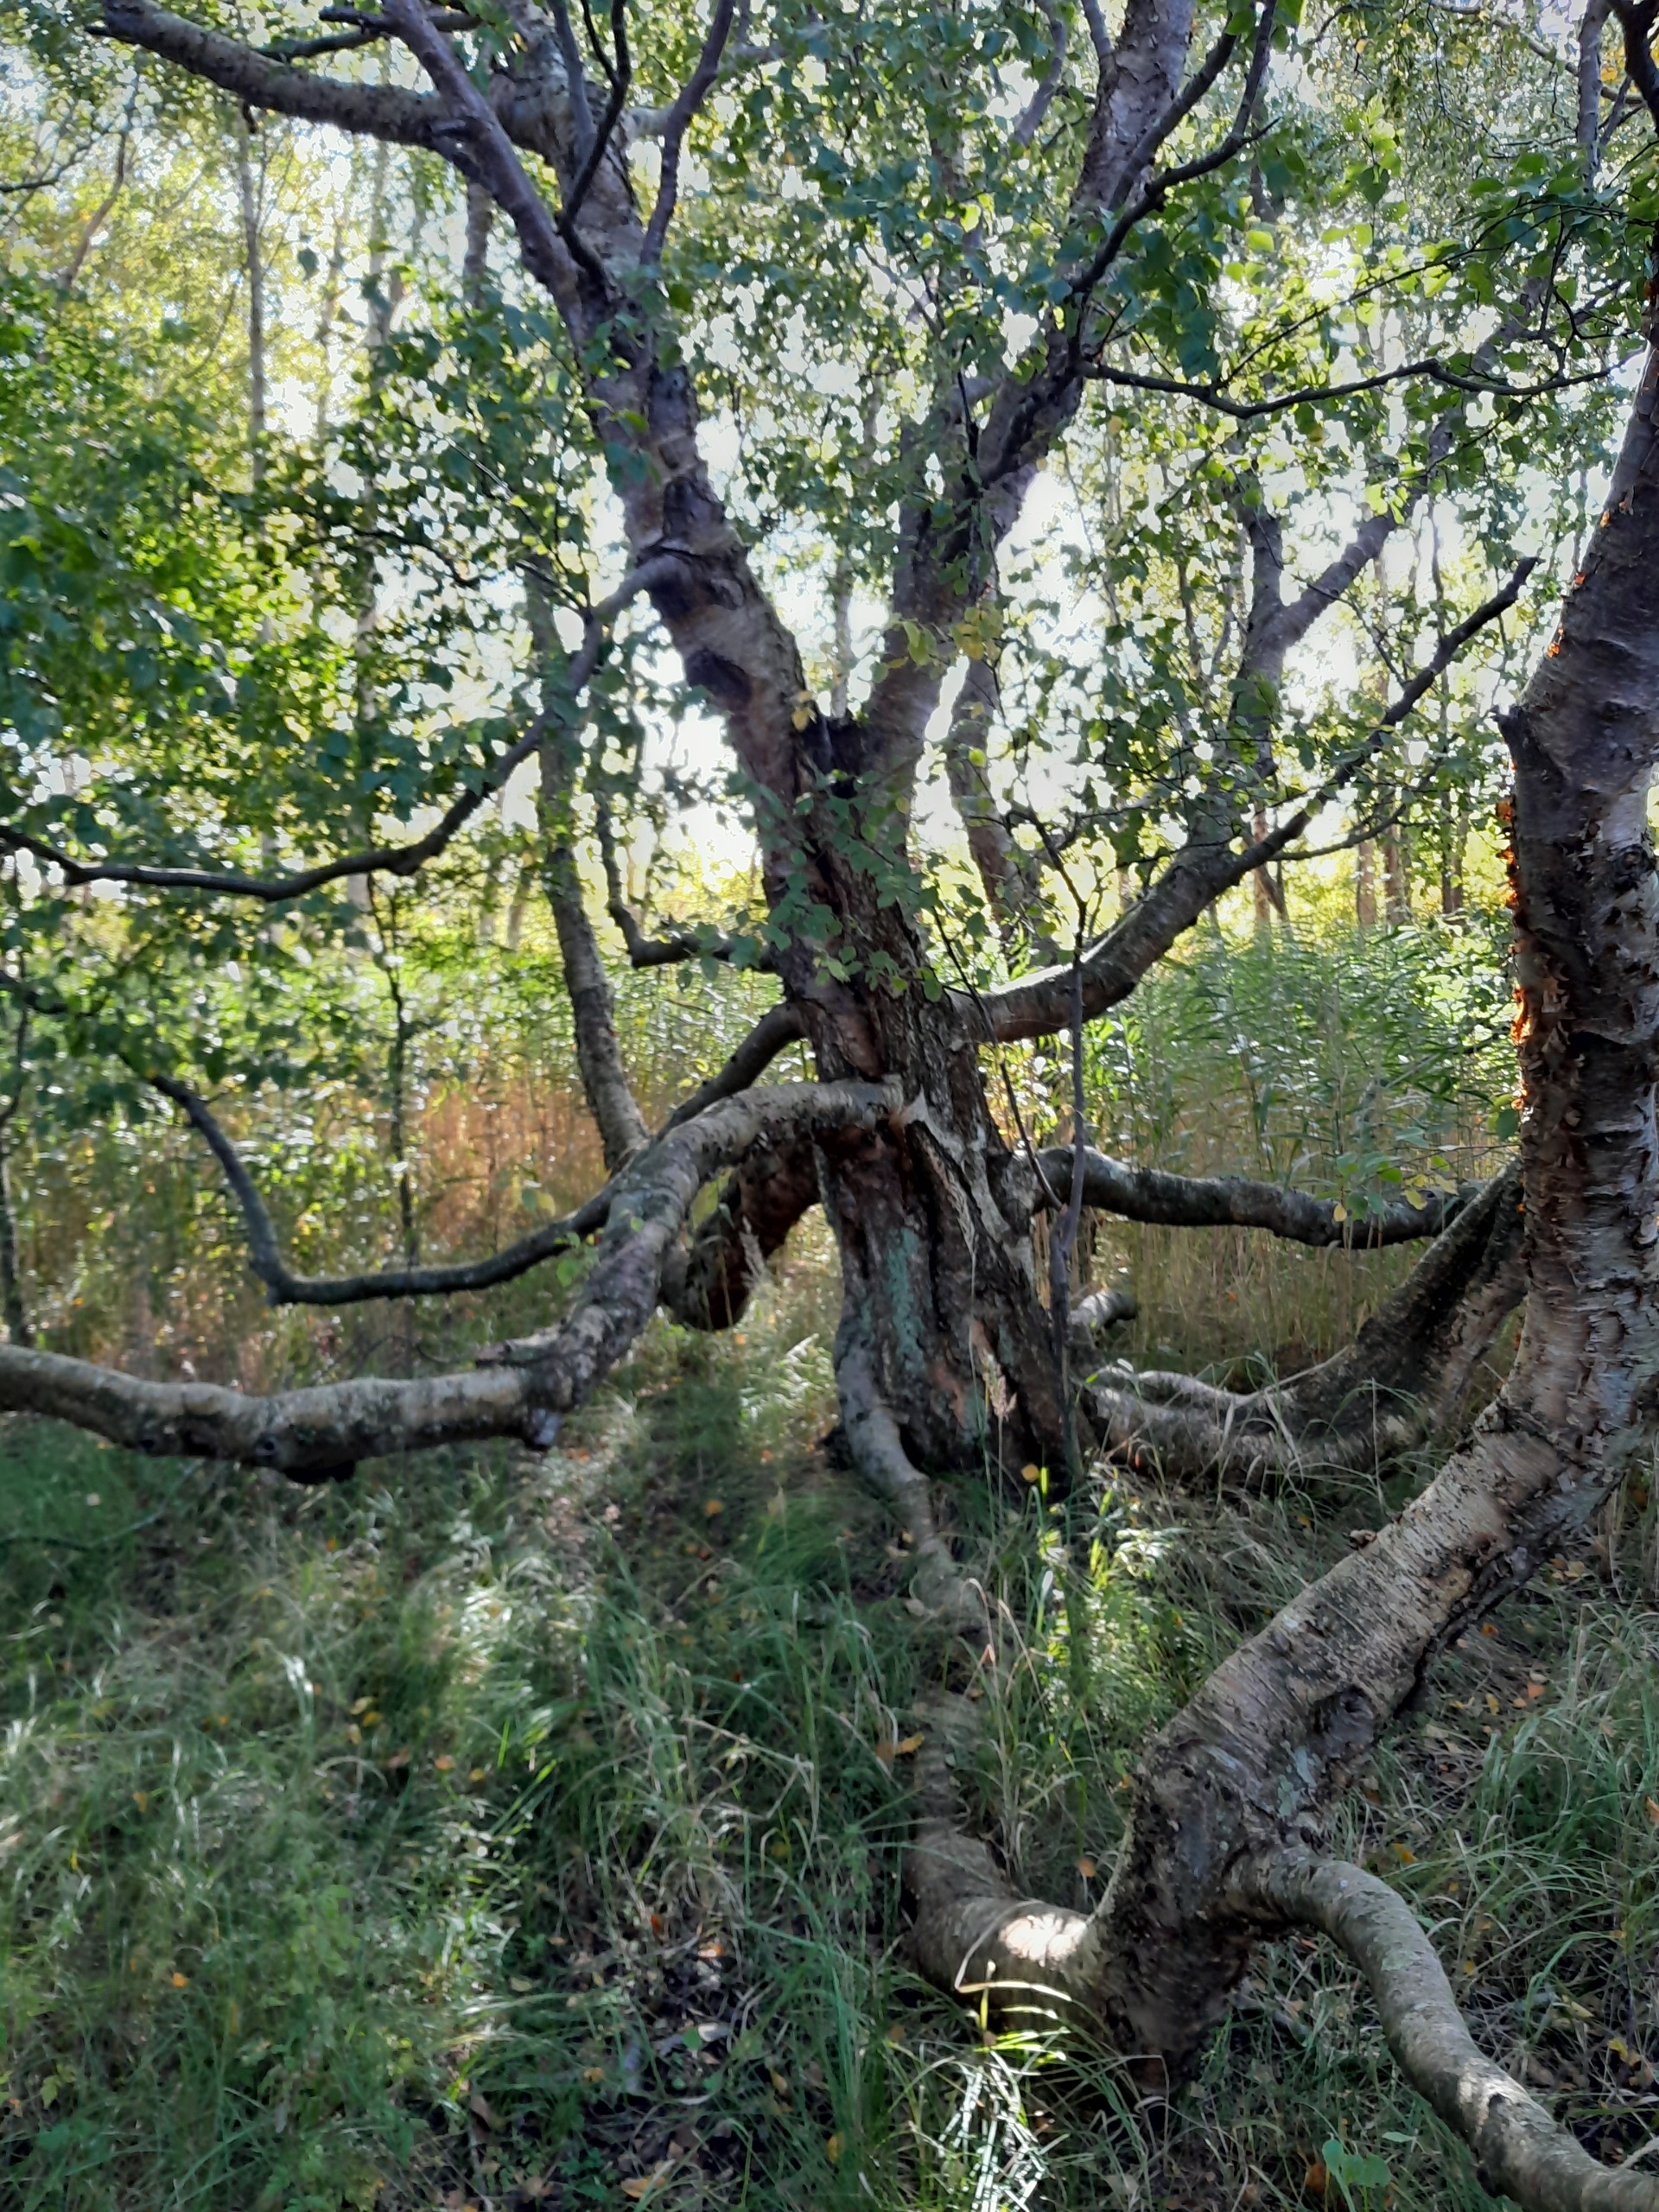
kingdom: Plantae
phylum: Tracheophyta
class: Magnoliopsida
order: Fagales
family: Betulaceae
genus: Betula
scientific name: Betula pubescens
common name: Dun-birk
